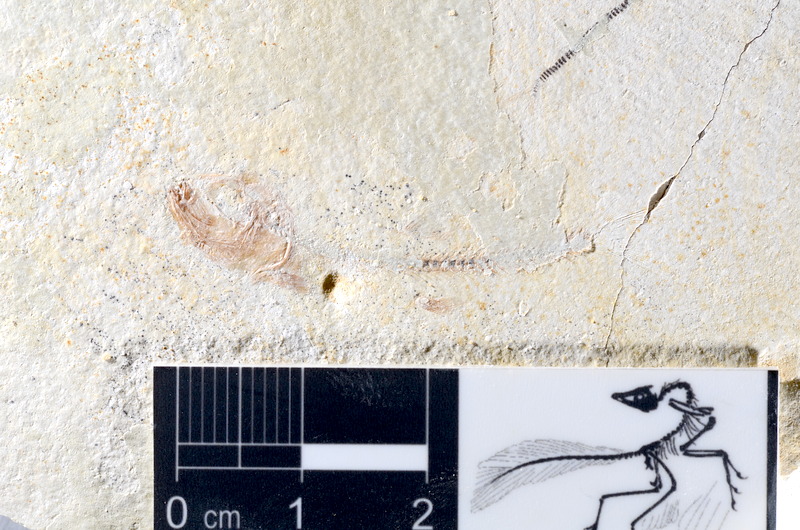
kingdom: Animalia
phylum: Chordata
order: Salmoniformes
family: Orthogonikleithridae
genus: Orthogonikleithrus
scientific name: Orthogonikleithrus hoelli
